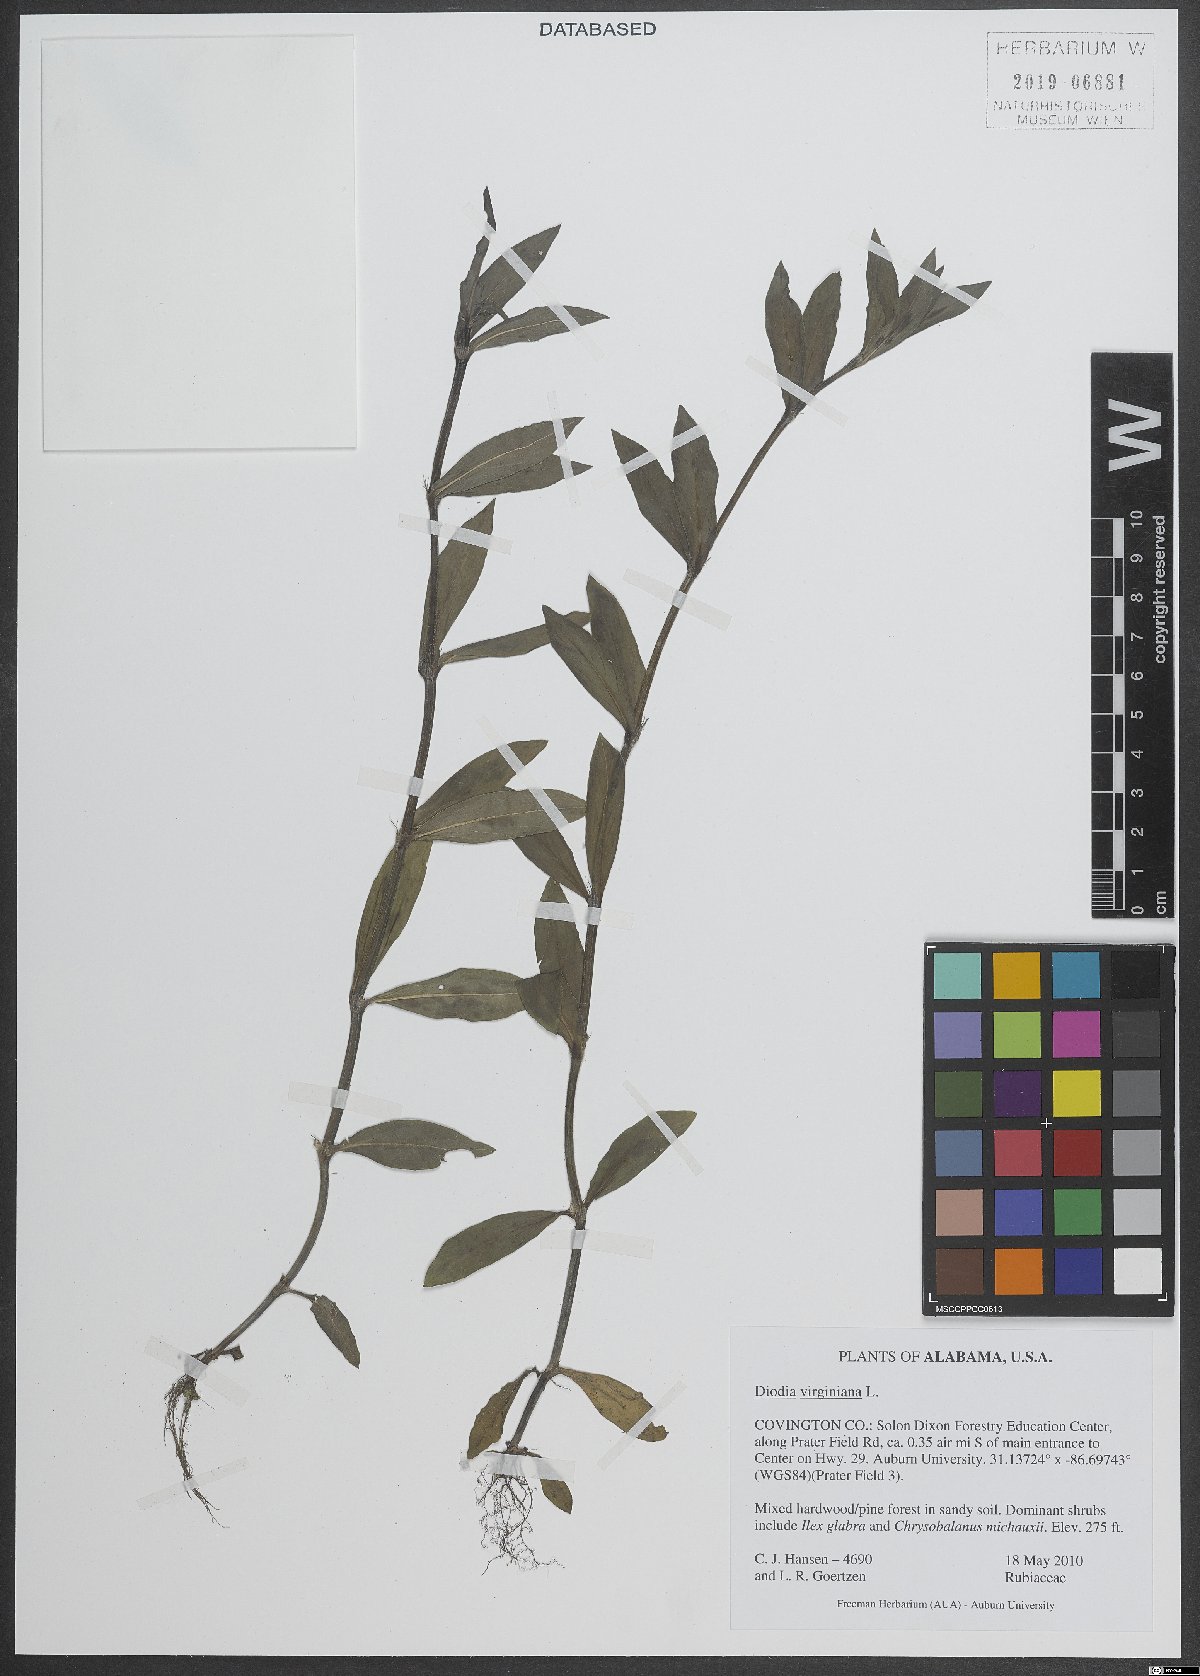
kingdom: Plantae
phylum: Tracheophyta
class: Magnoliopsida
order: Gentianales
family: Rubiaceae
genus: Diodia
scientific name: Diodia virginiana
